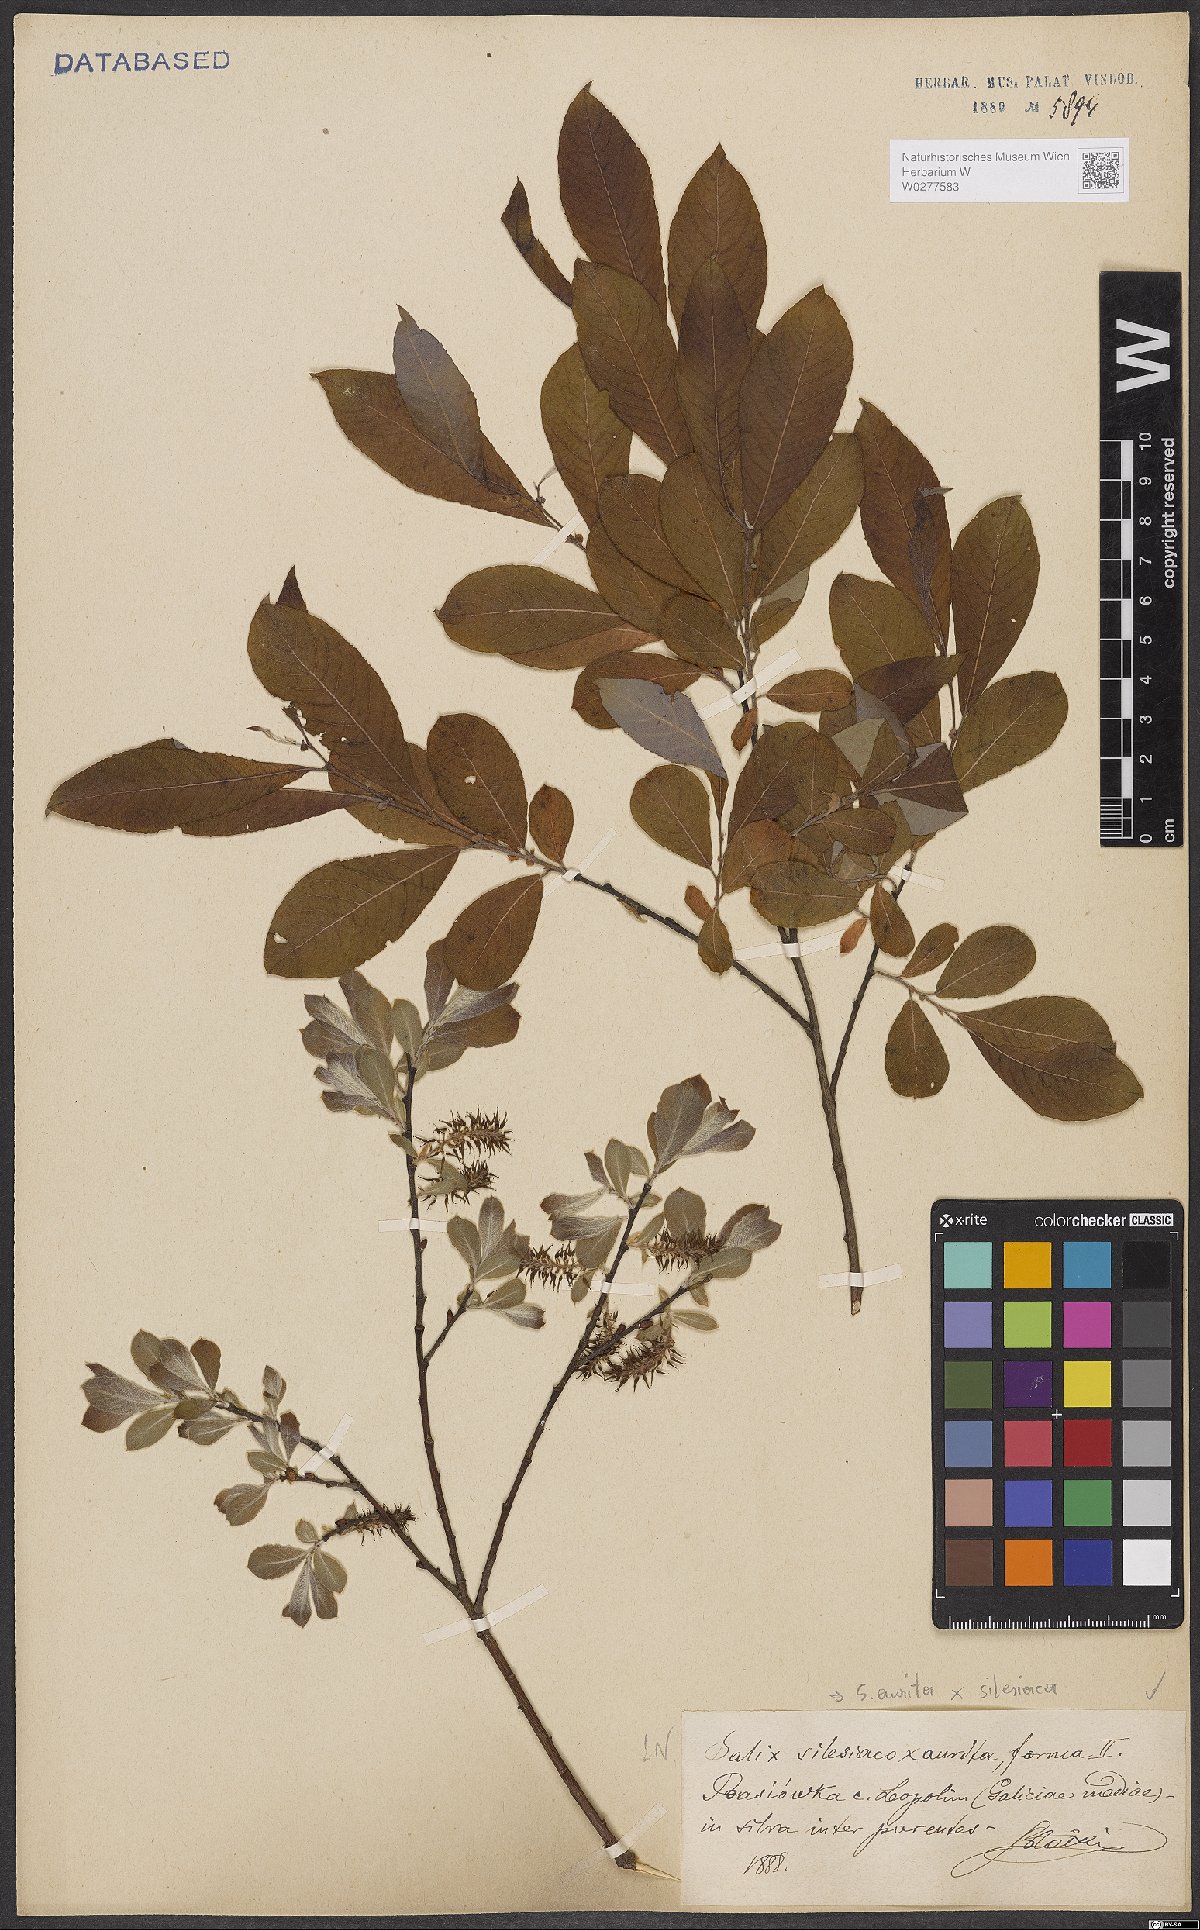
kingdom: Plantae
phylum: Tracheophyta
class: Magnoliopsida
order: Malpighiales
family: Salicaceae
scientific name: Salicaceae
